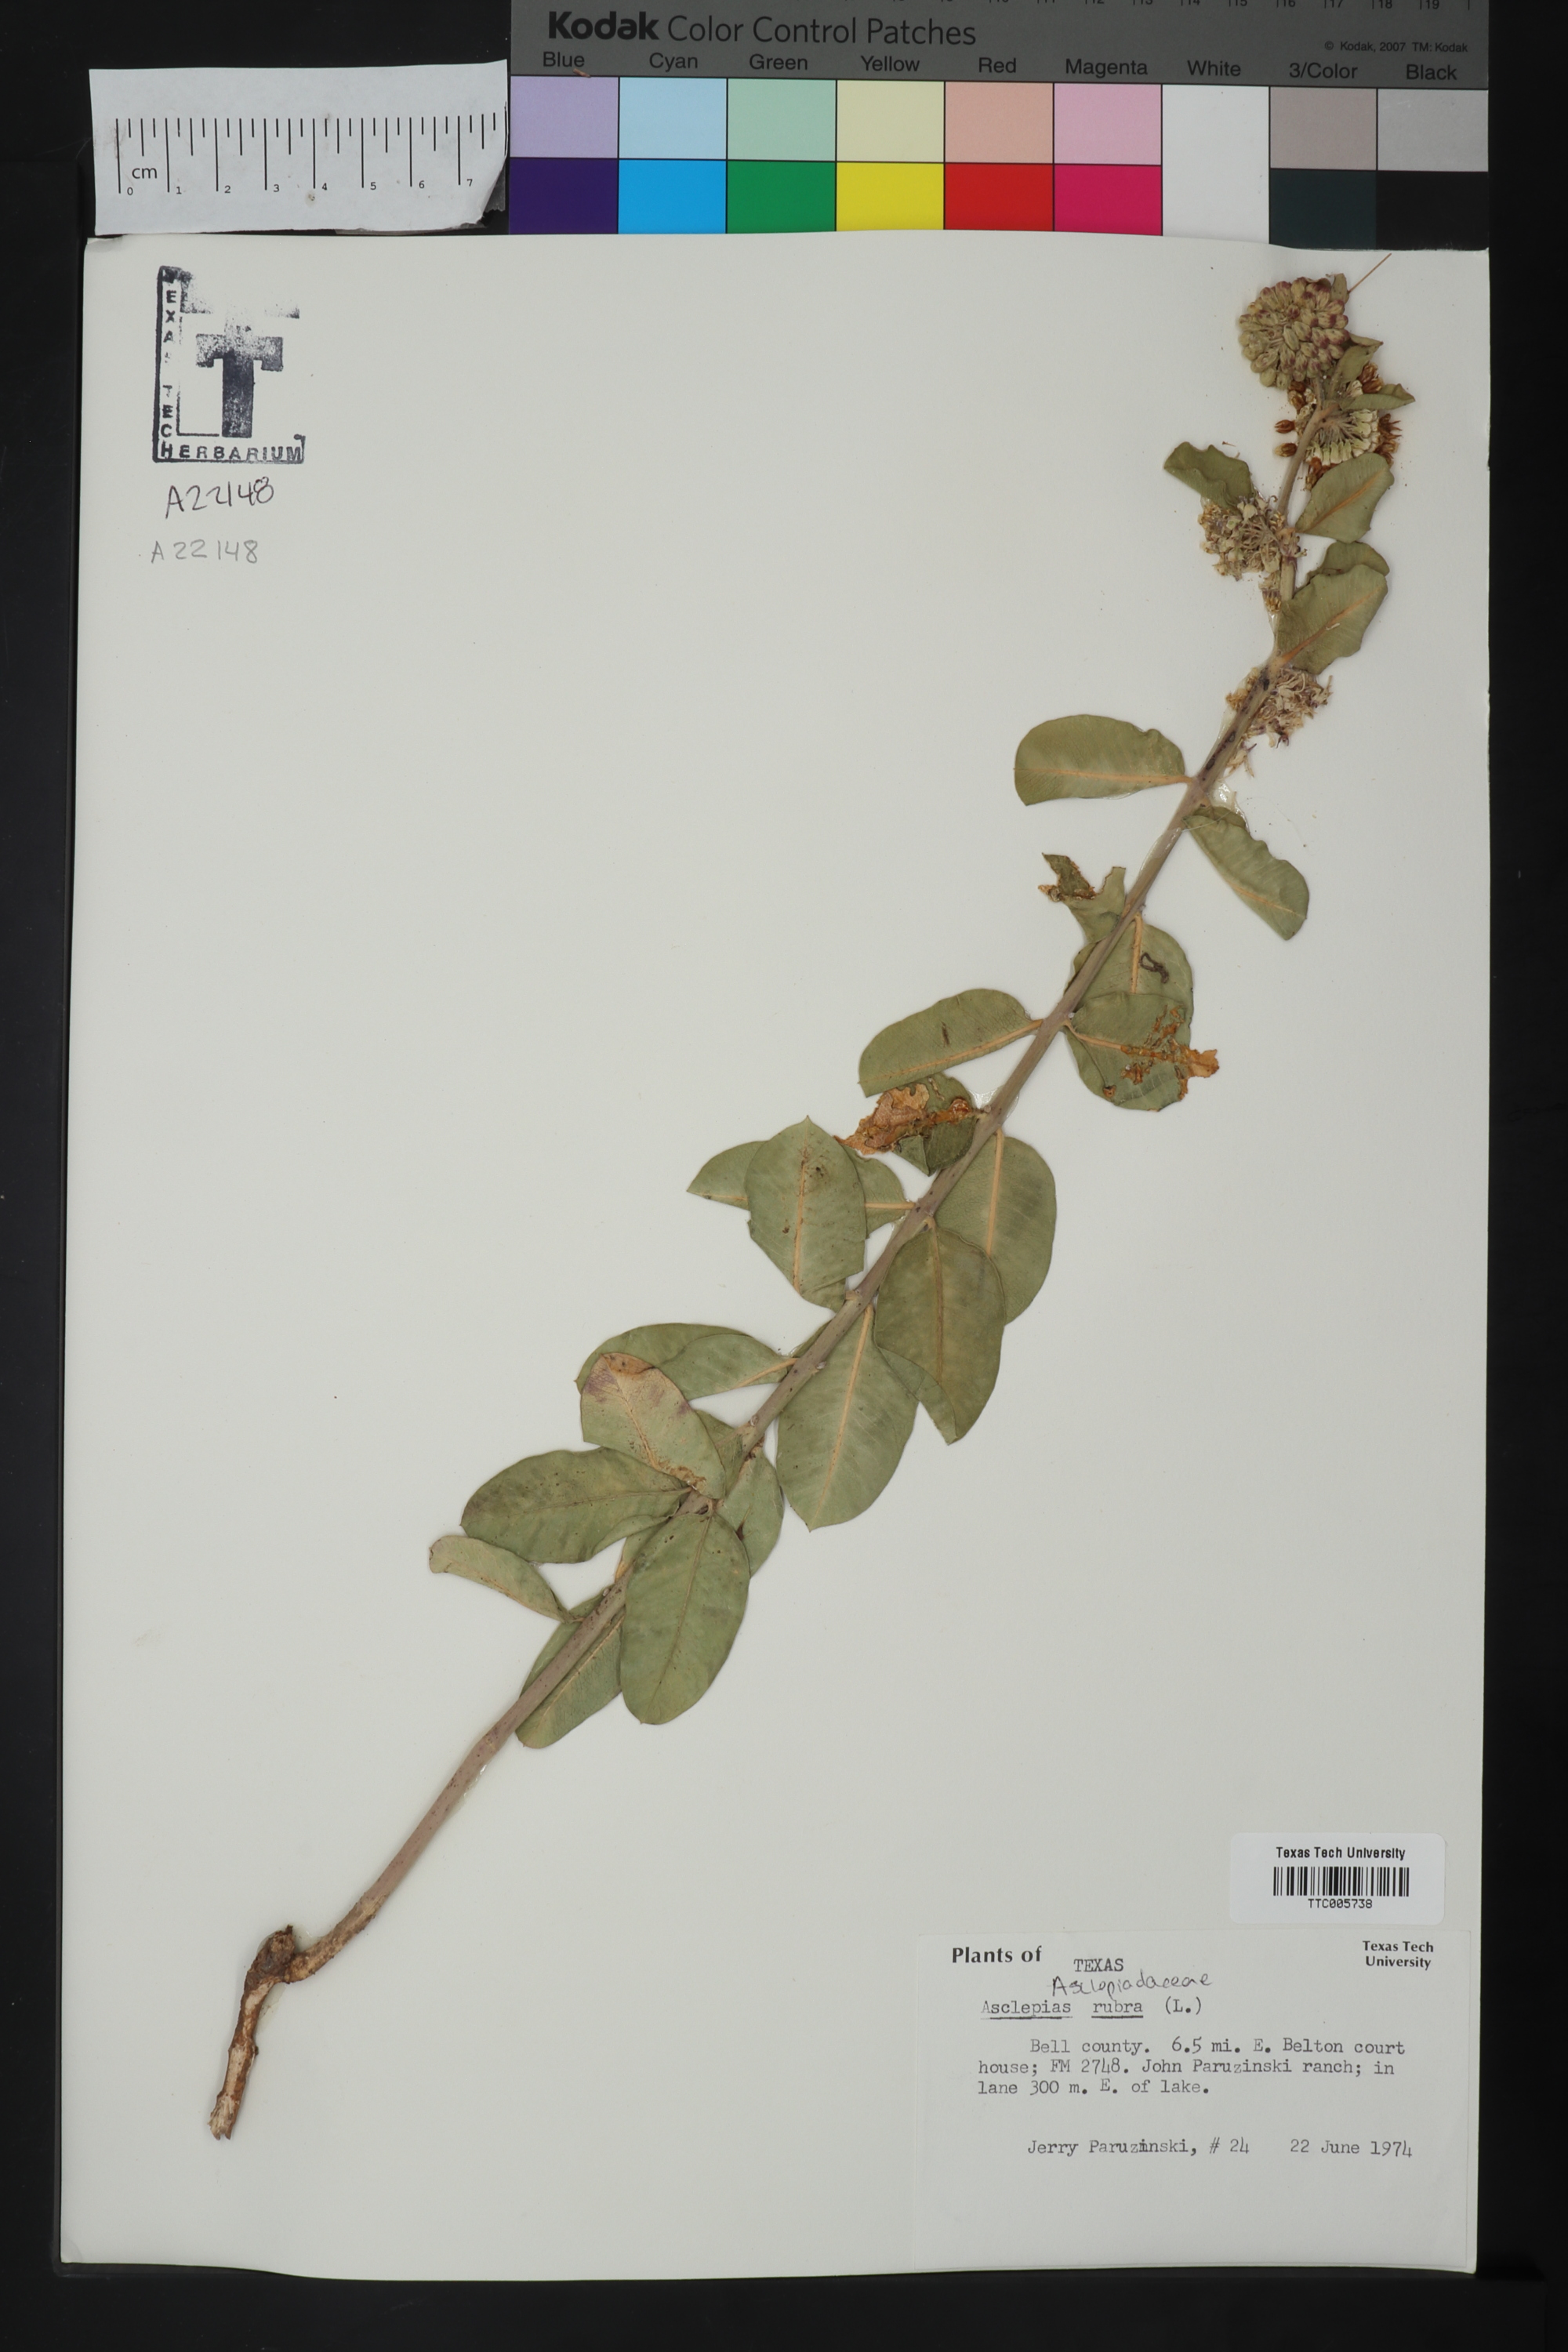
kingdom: Plantae
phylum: Tracheophyta
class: Magnoliopsida
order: Gentianales
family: Apocynaceae
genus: Asclepias
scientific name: Asclepias viridiflora
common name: Green comet milkweed
